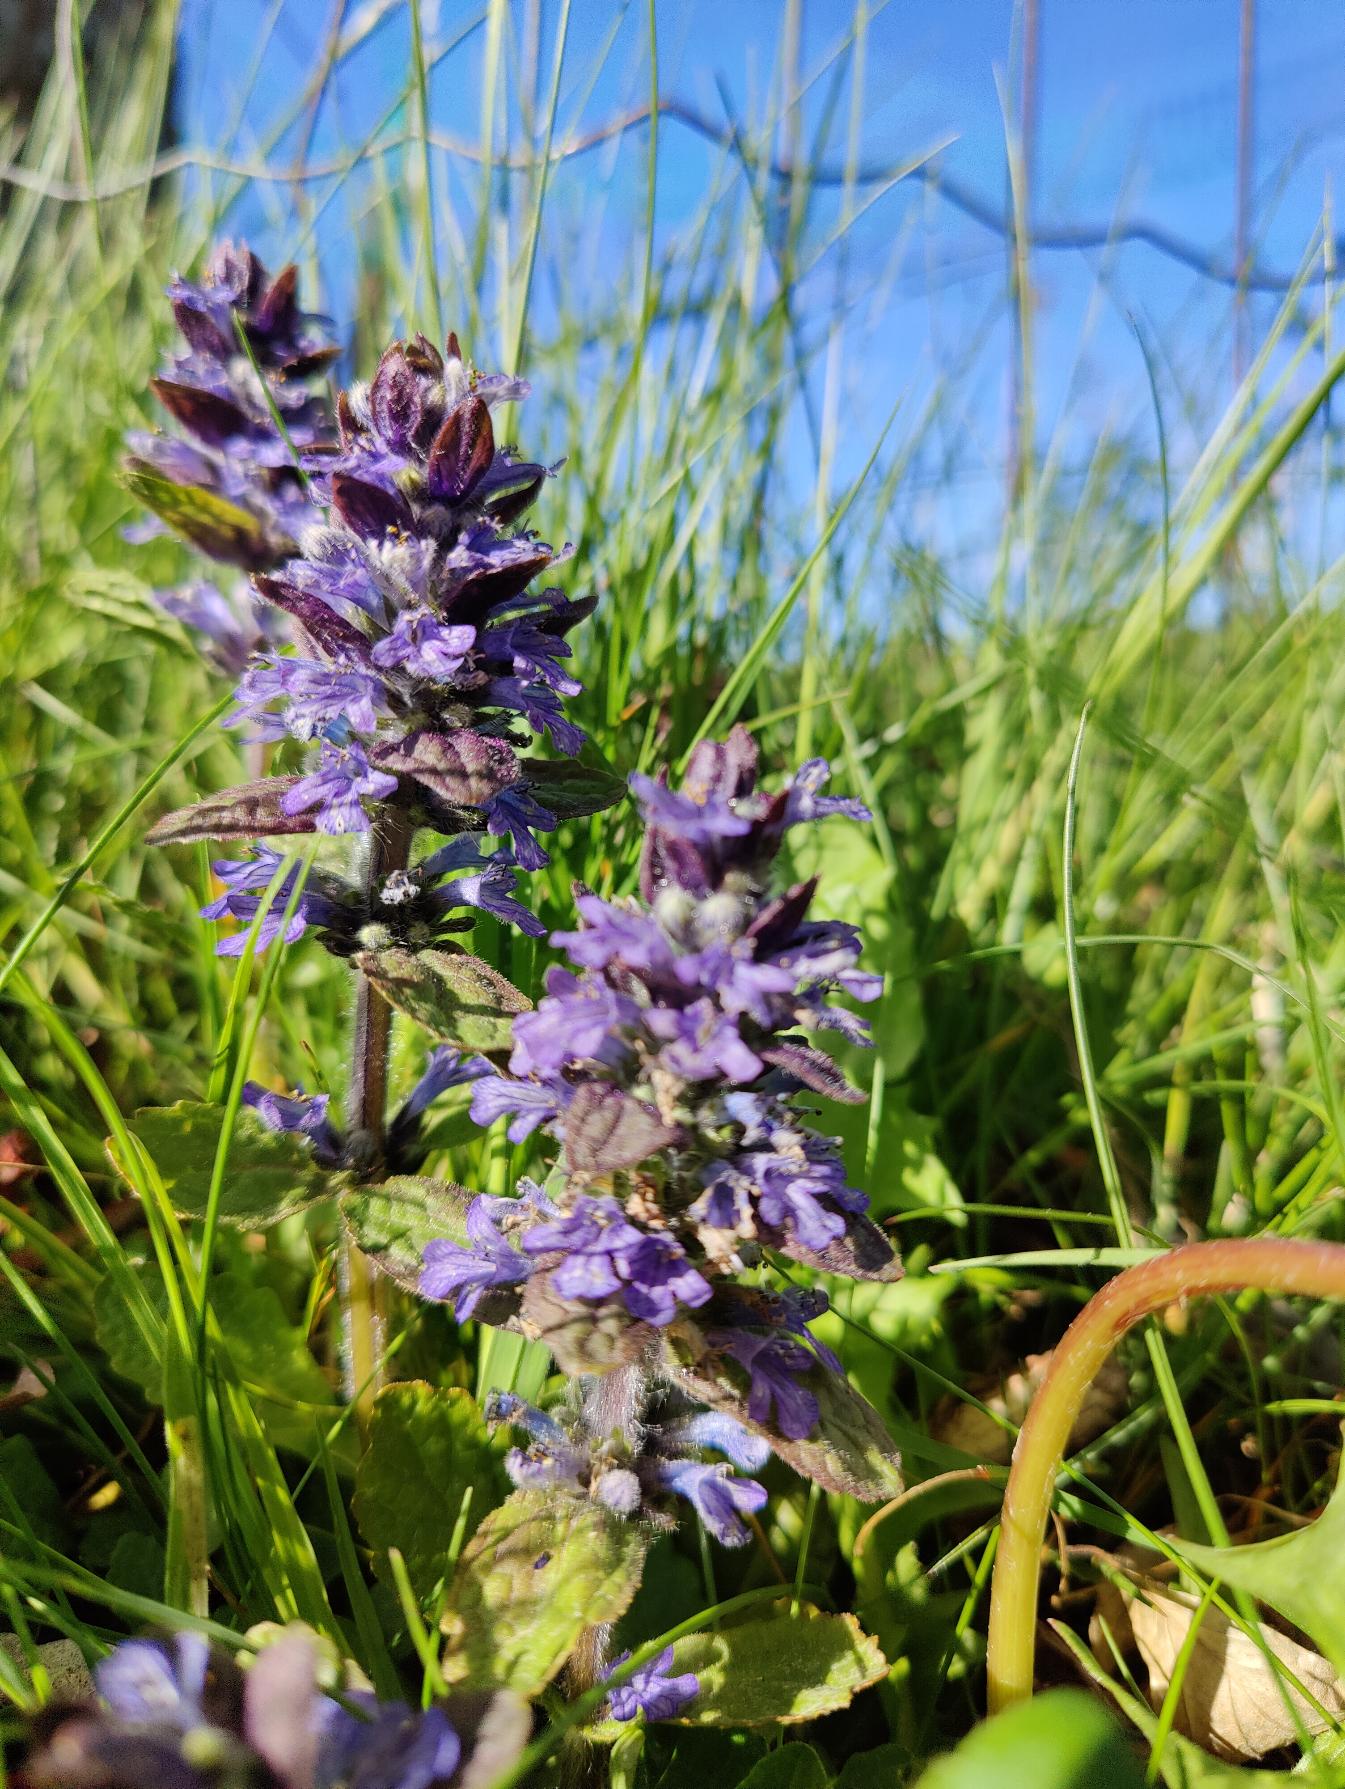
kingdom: Plantae
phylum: Tracheophyta
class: Magnoliopsida
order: Lamiales
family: Lamiaceae
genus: Ajuga
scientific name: Ajuga reptans
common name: Krybende læbeløs
